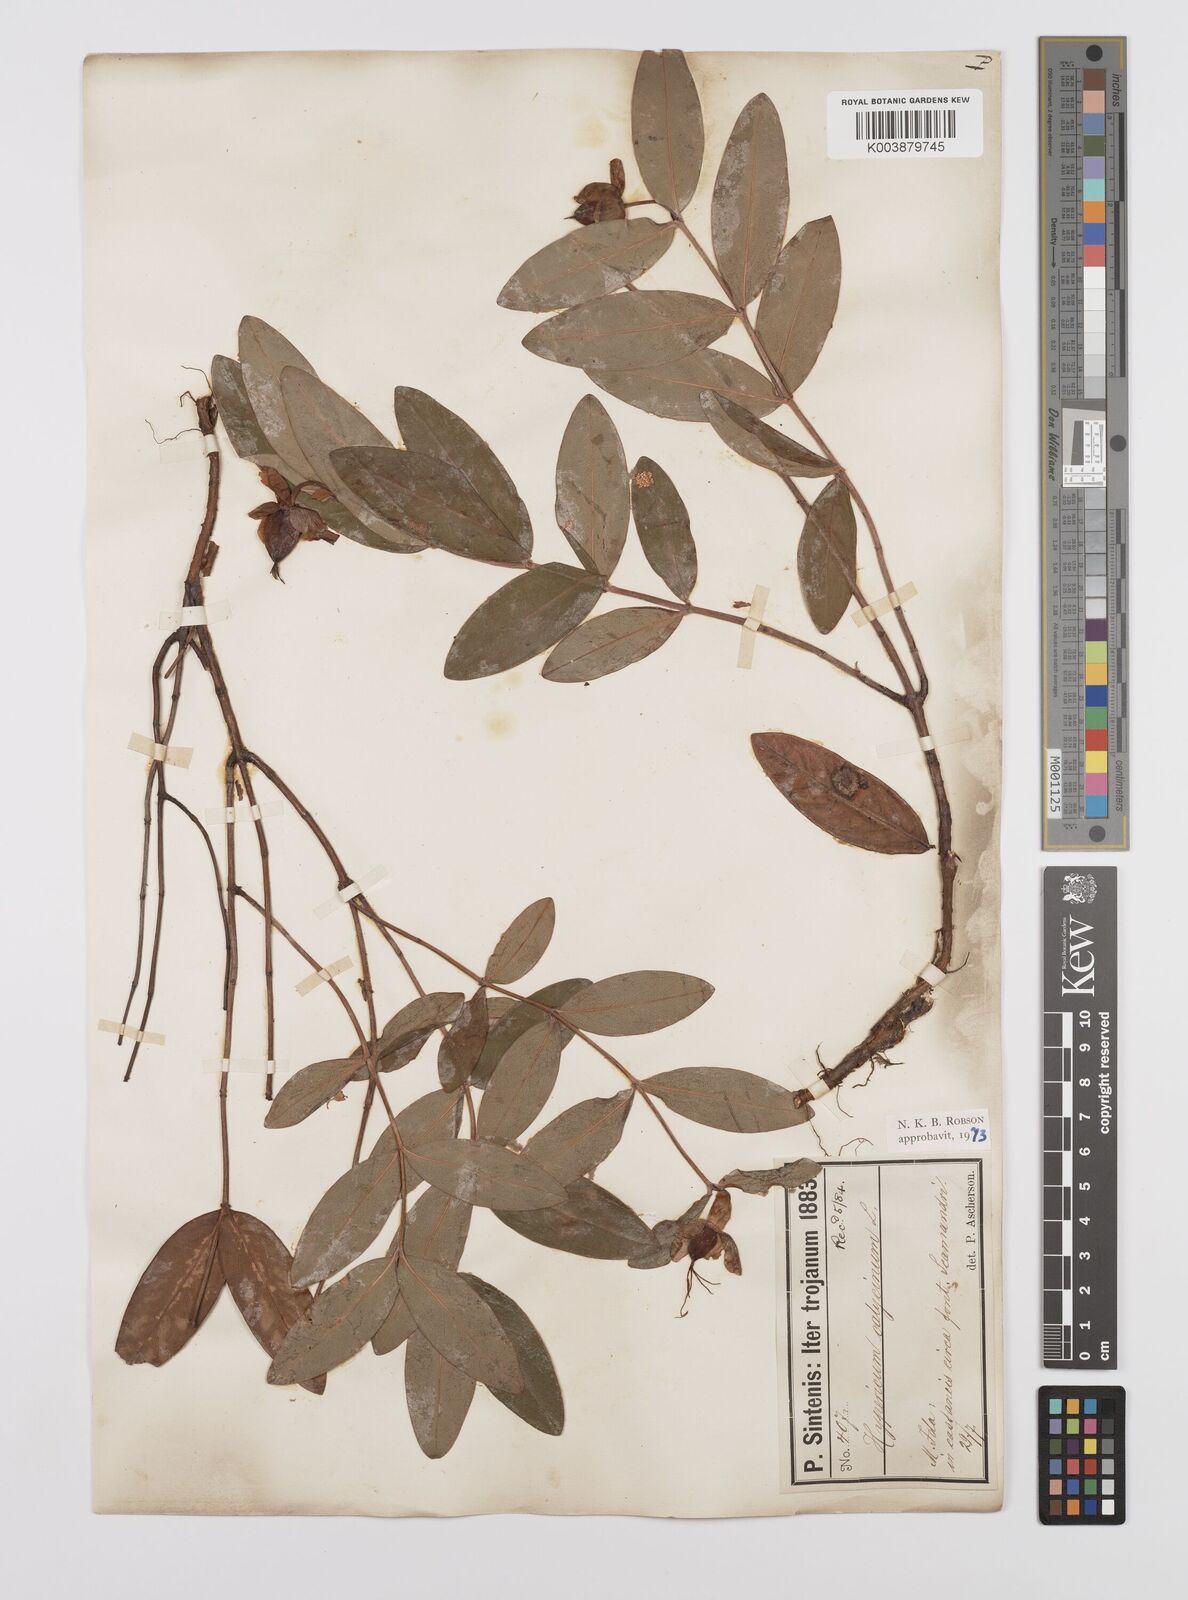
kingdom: Plantae
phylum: Tracheophyta
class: Magnoliopsida
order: Malpighiales
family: Hypericaceae
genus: Hypericum
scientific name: Hypericum calycinum
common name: Rose-of-sharon
